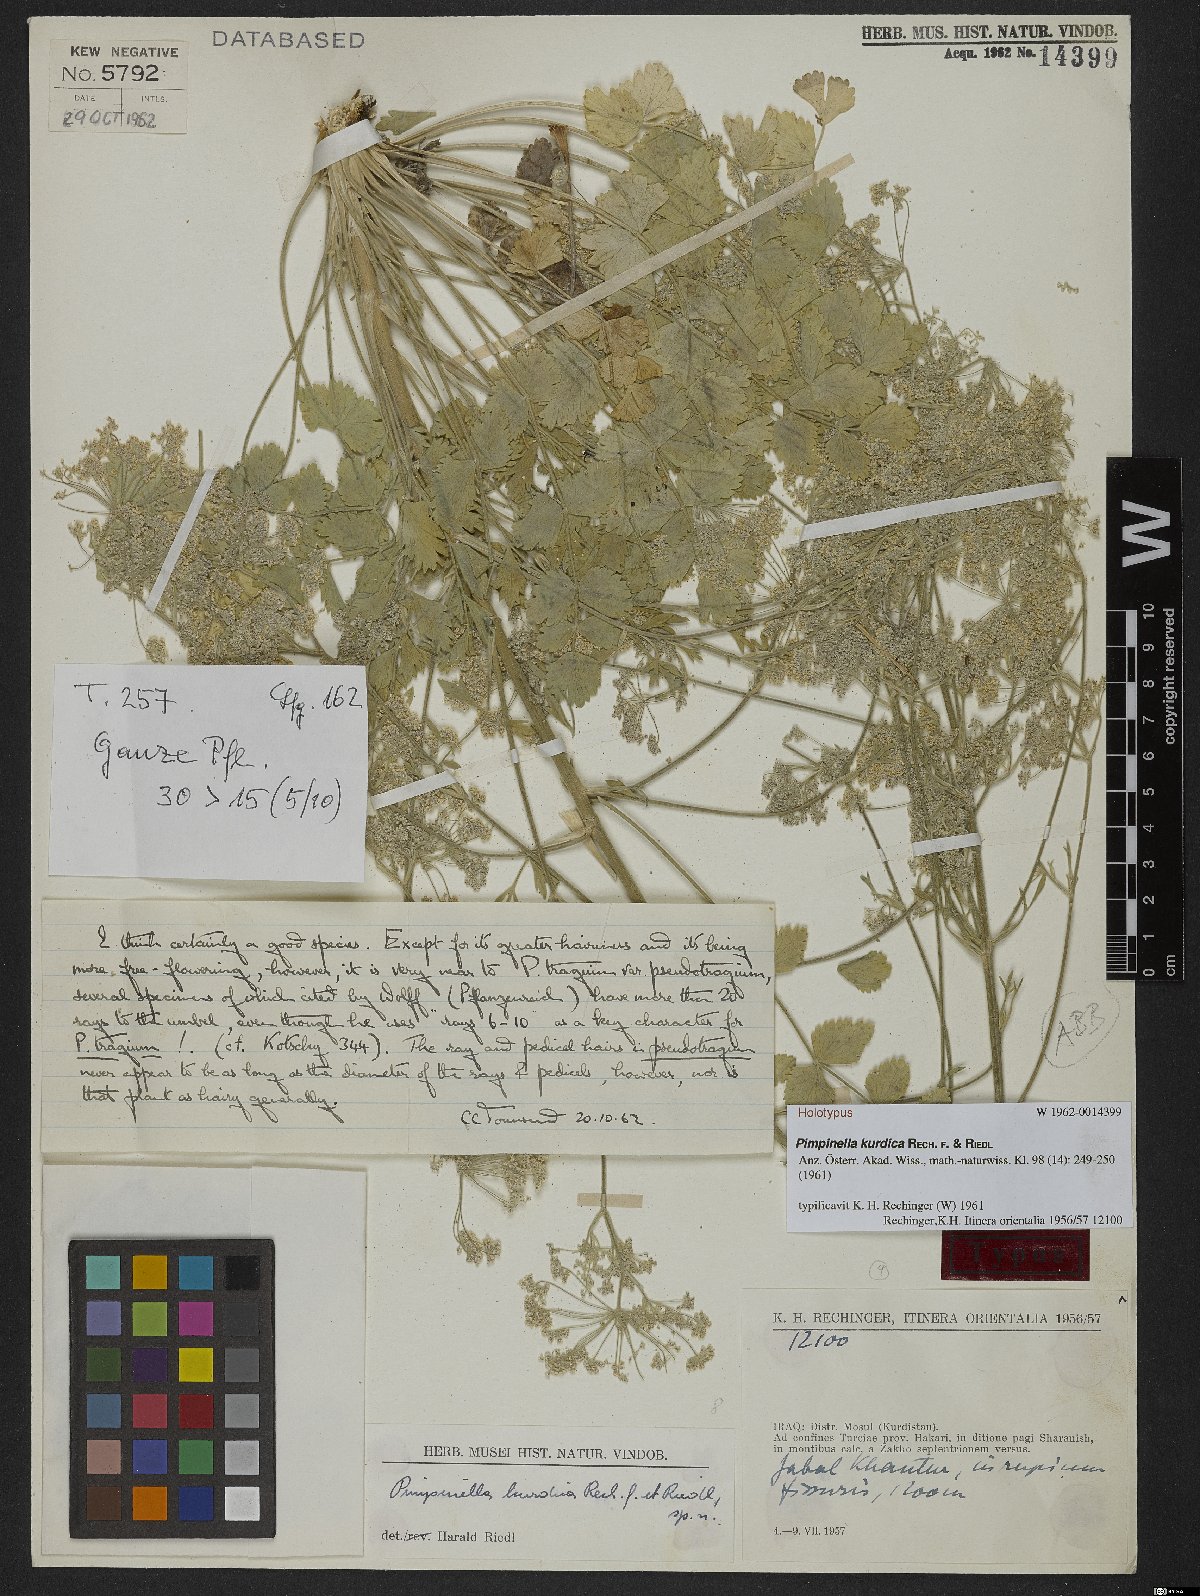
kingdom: Plantae
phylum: Tracheophyta
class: Magnoliopsida
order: Apiales
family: Apiaceae
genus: Pimpinella
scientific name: Pimpinella kurdica
